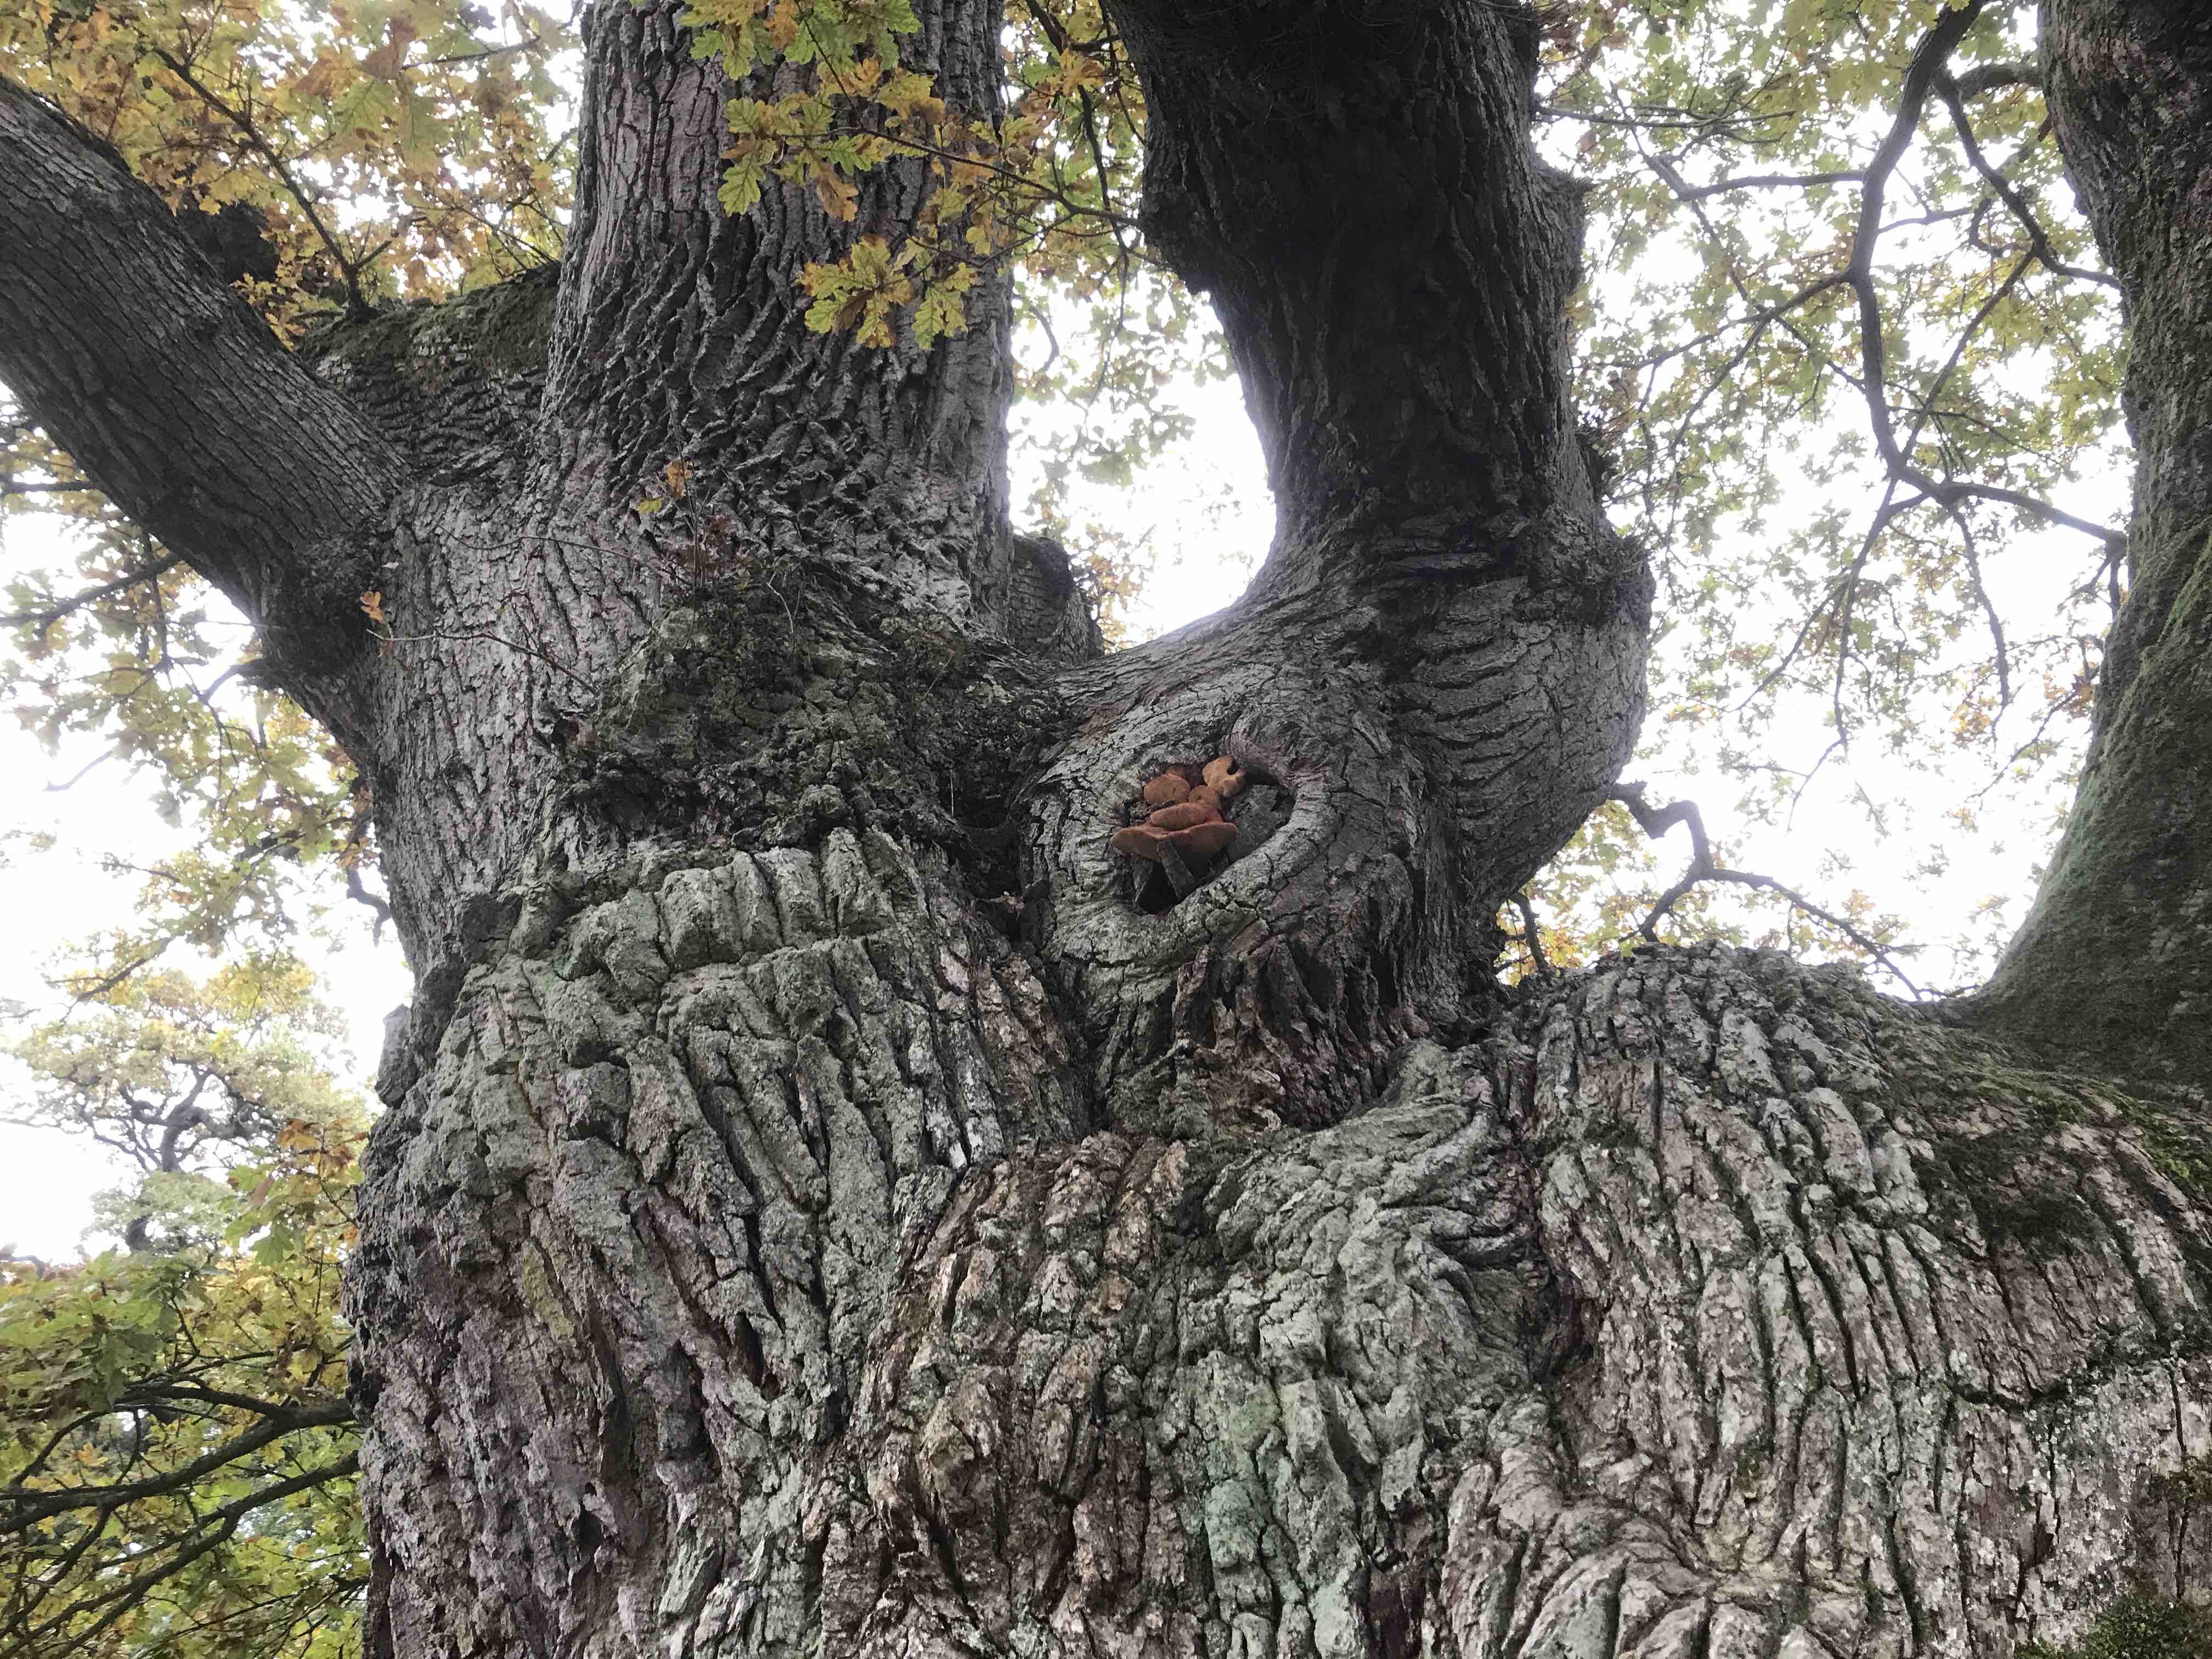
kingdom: Fungi
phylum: Basidiomycota
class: Agaricomycetes
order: Agaricales
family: Fistulinaceae
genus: Fistulina
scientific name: Fistulina hepatica
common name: oksetunge
